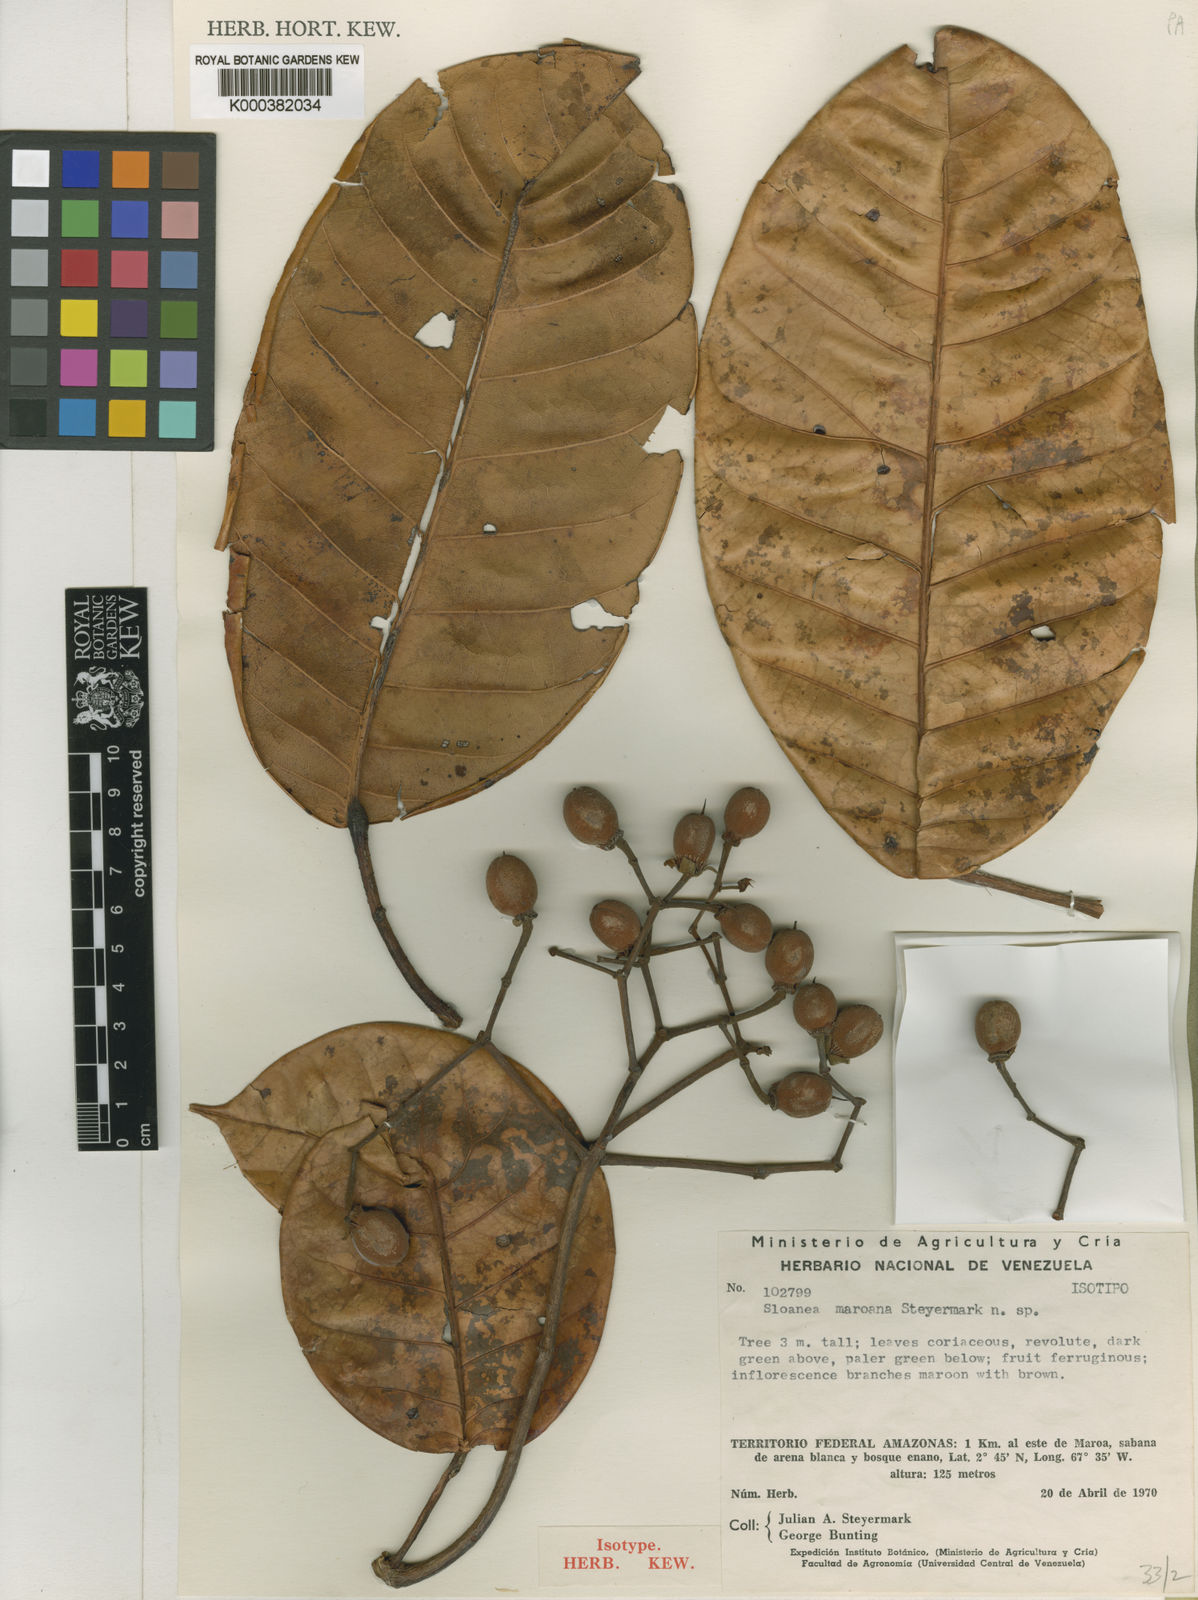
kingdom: Plantae
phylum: Tracheophyta
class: Magnoliopsida
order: Oxalidales
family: Elaeocarpaceae
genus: Sloanea
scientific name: Sloanea floribunda
